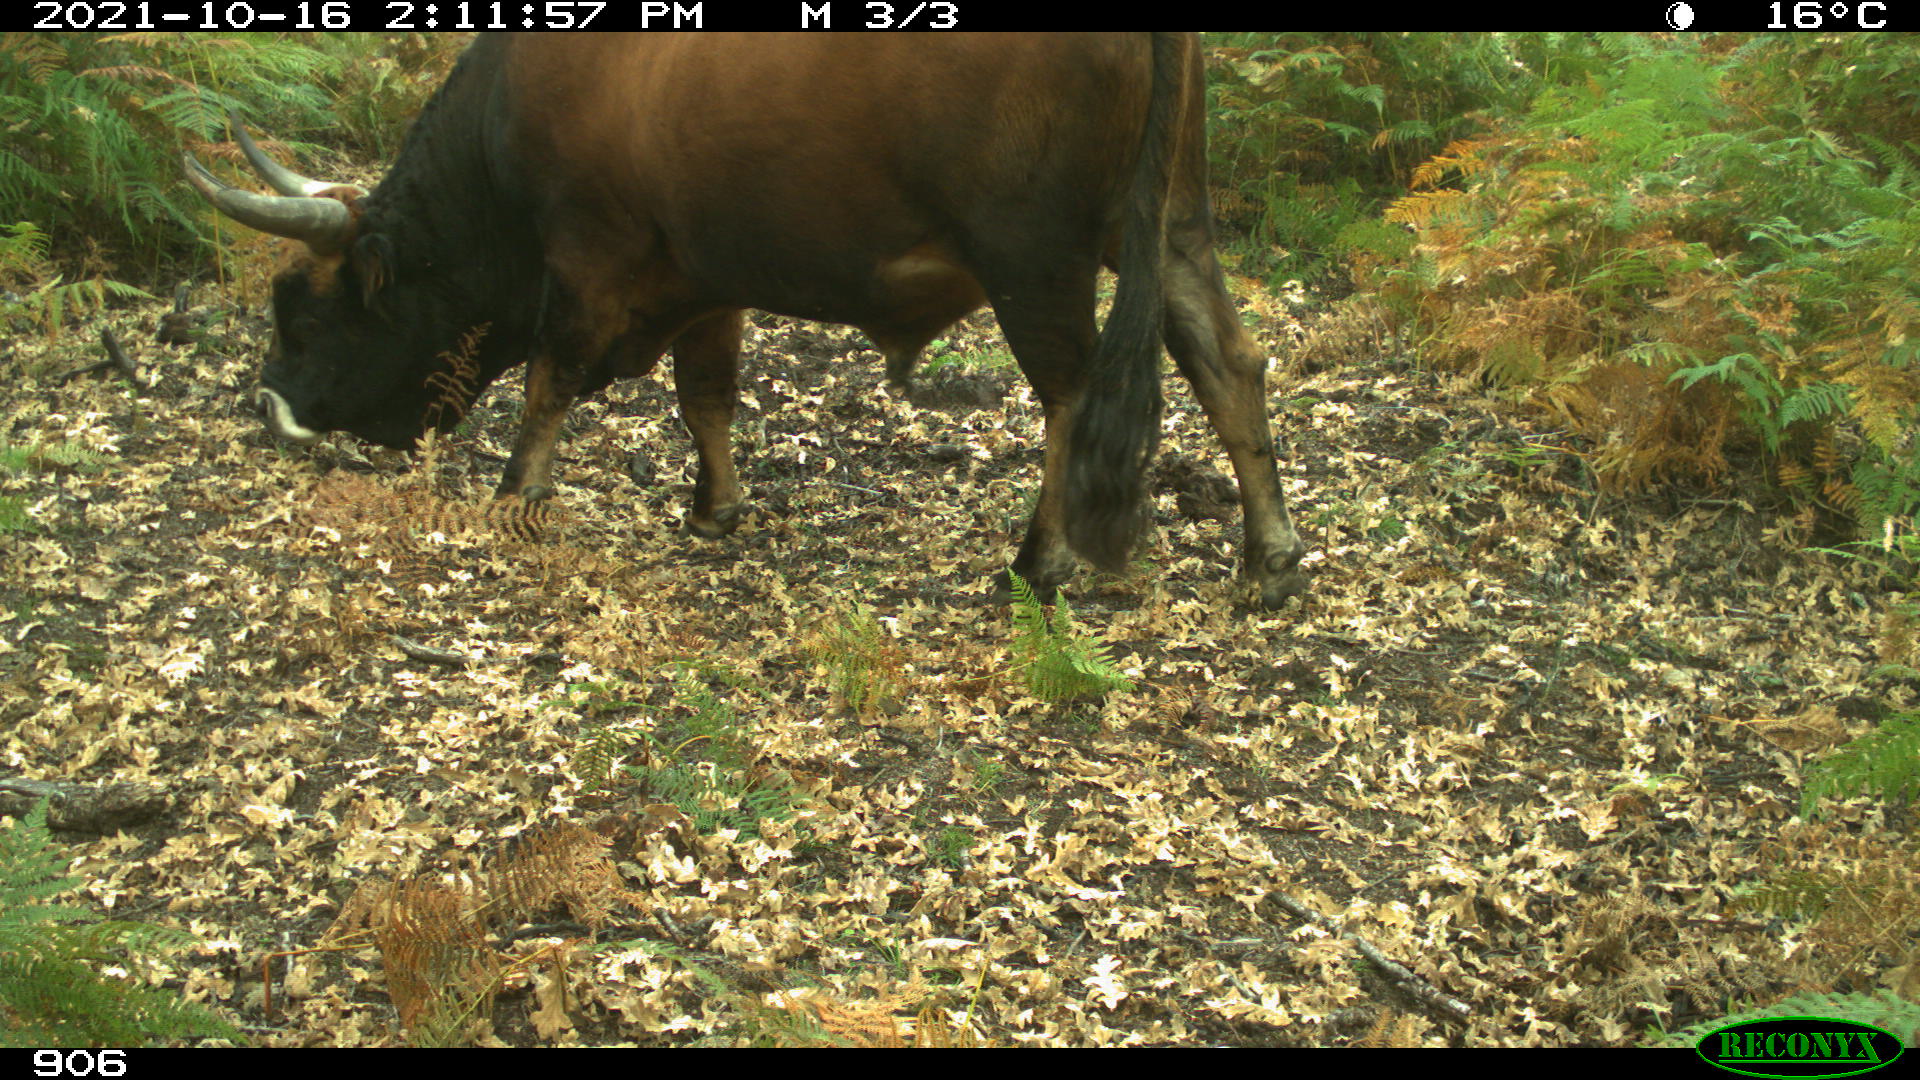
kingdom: Animalia
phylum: Chordata
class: Mammalia
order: Artiodactyla
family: Bovidae
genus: Bos
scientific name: Bos taurus
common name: Domesticated cattle
